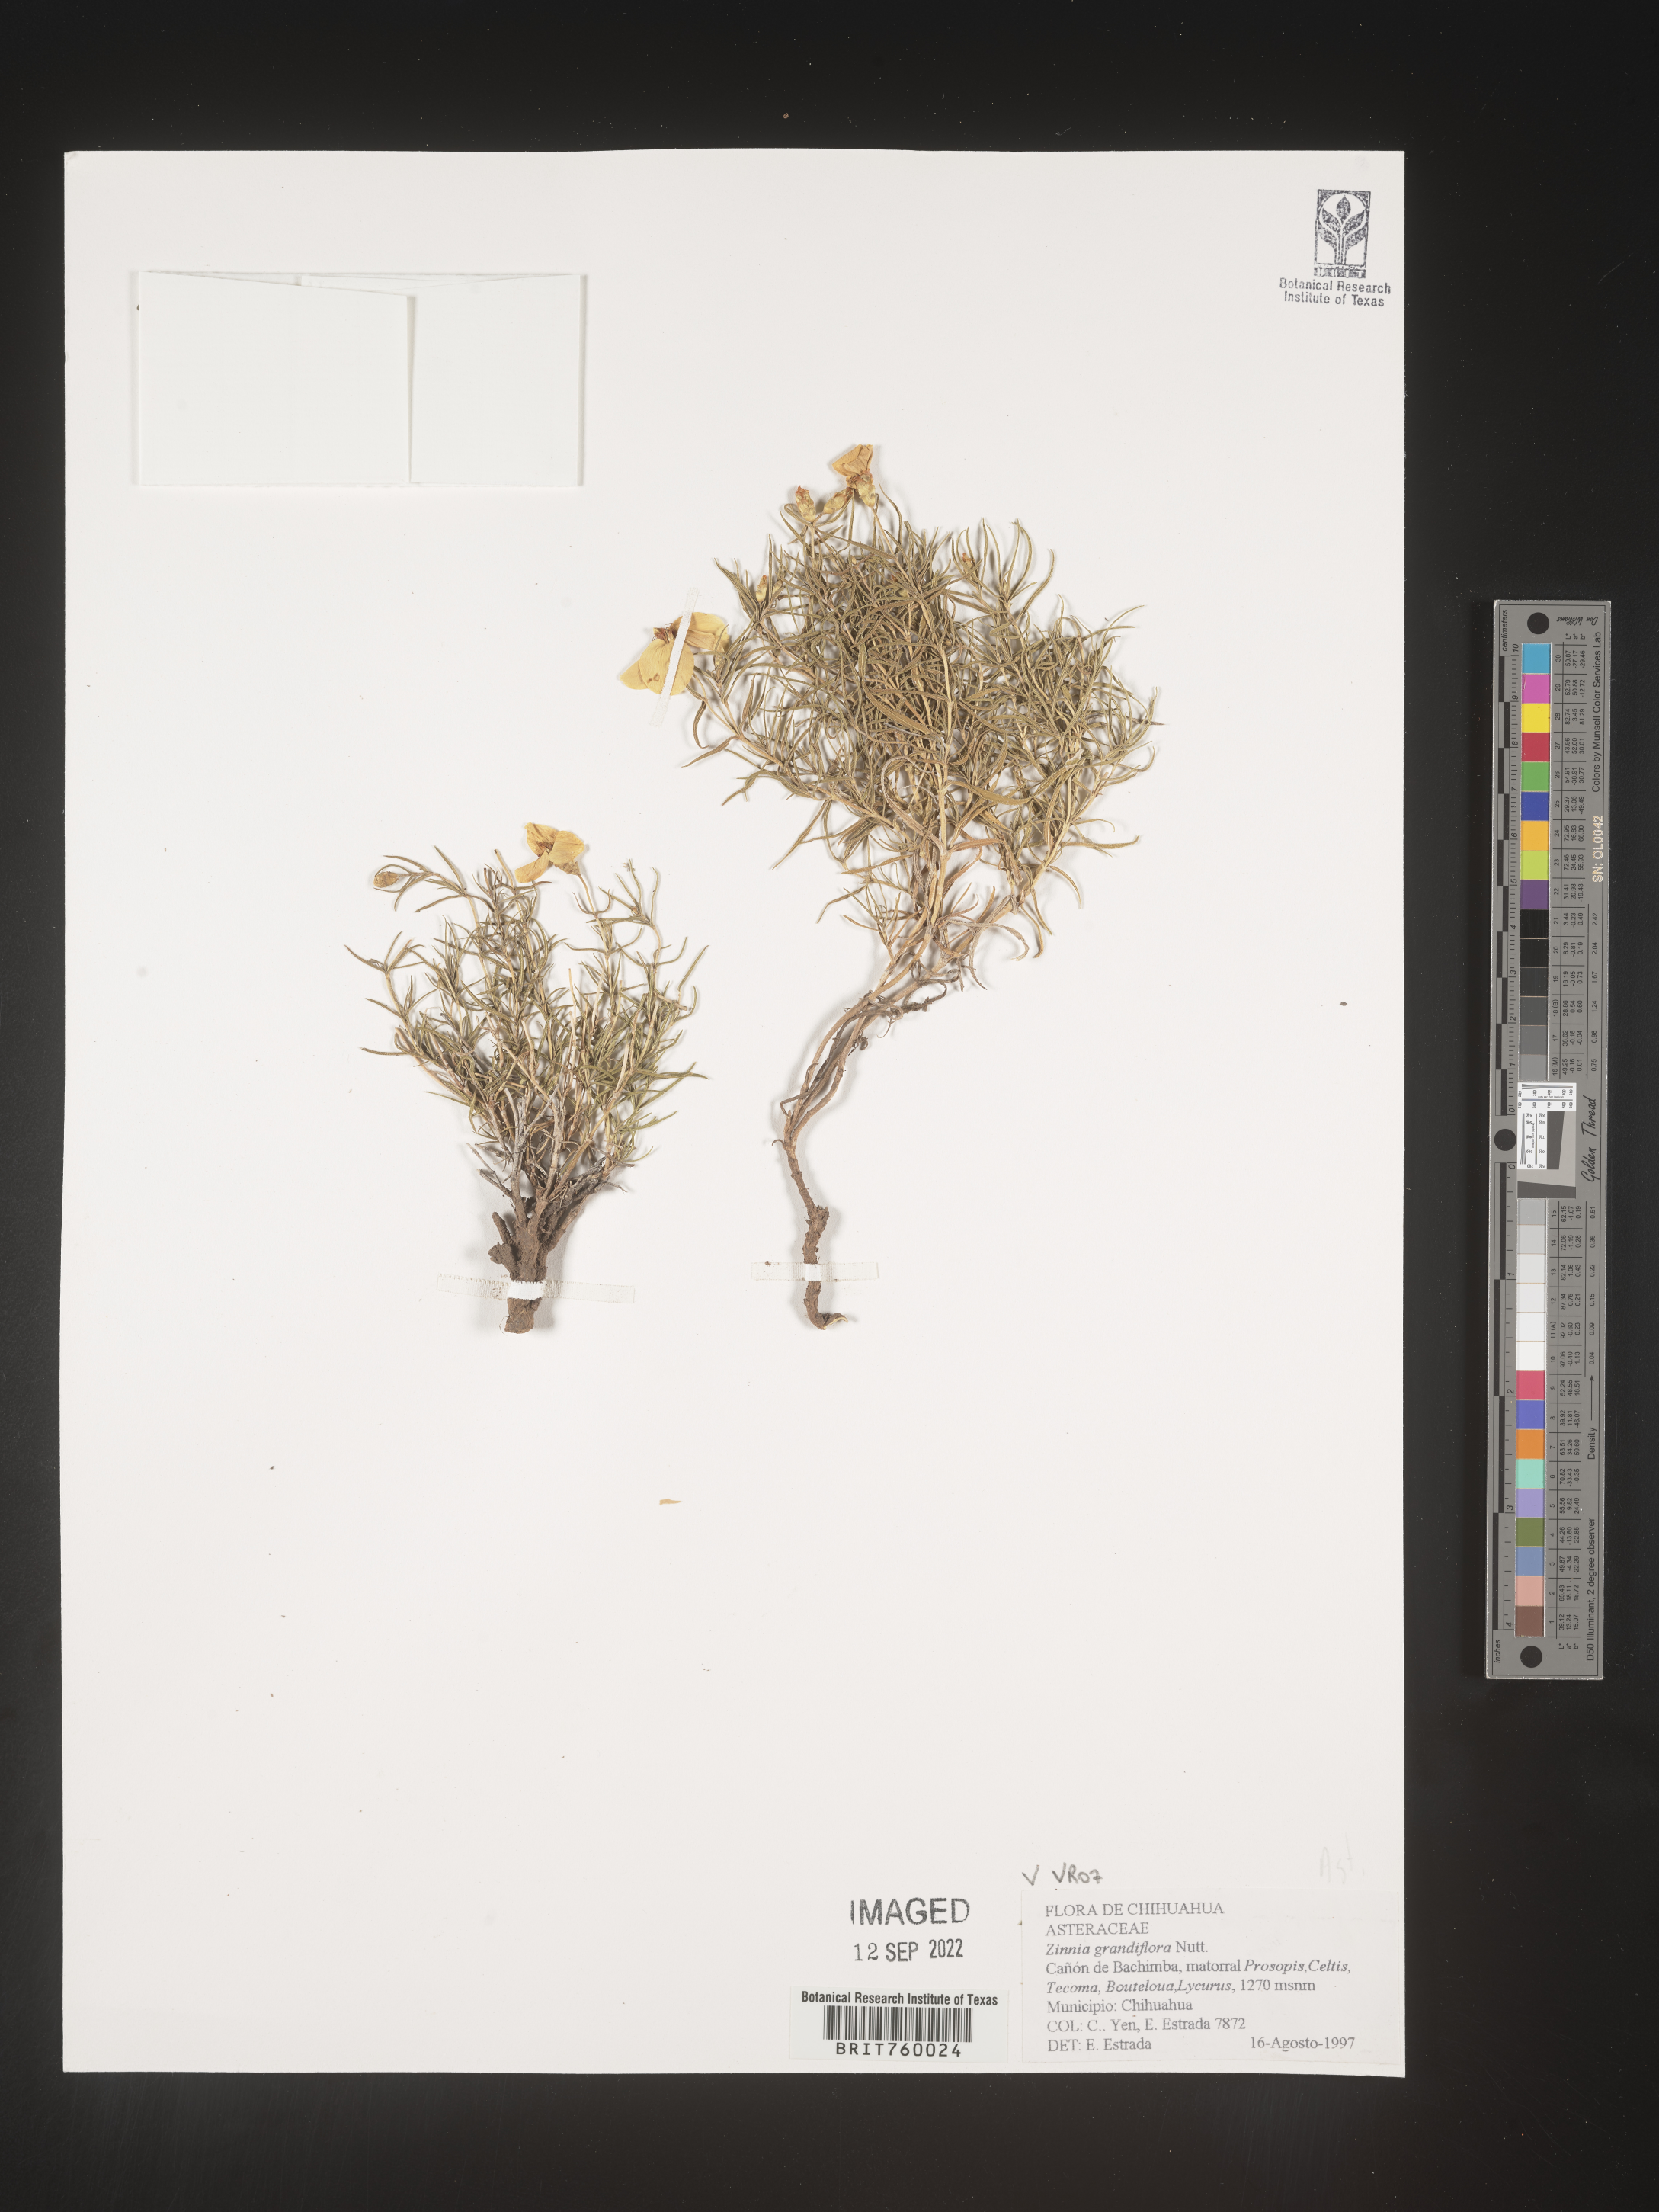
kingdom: Plantae
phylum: Tracheophyta
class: Magnoliopsida
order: Asterales
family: Asteraceae
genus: Zinnia
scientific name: Zinnia
